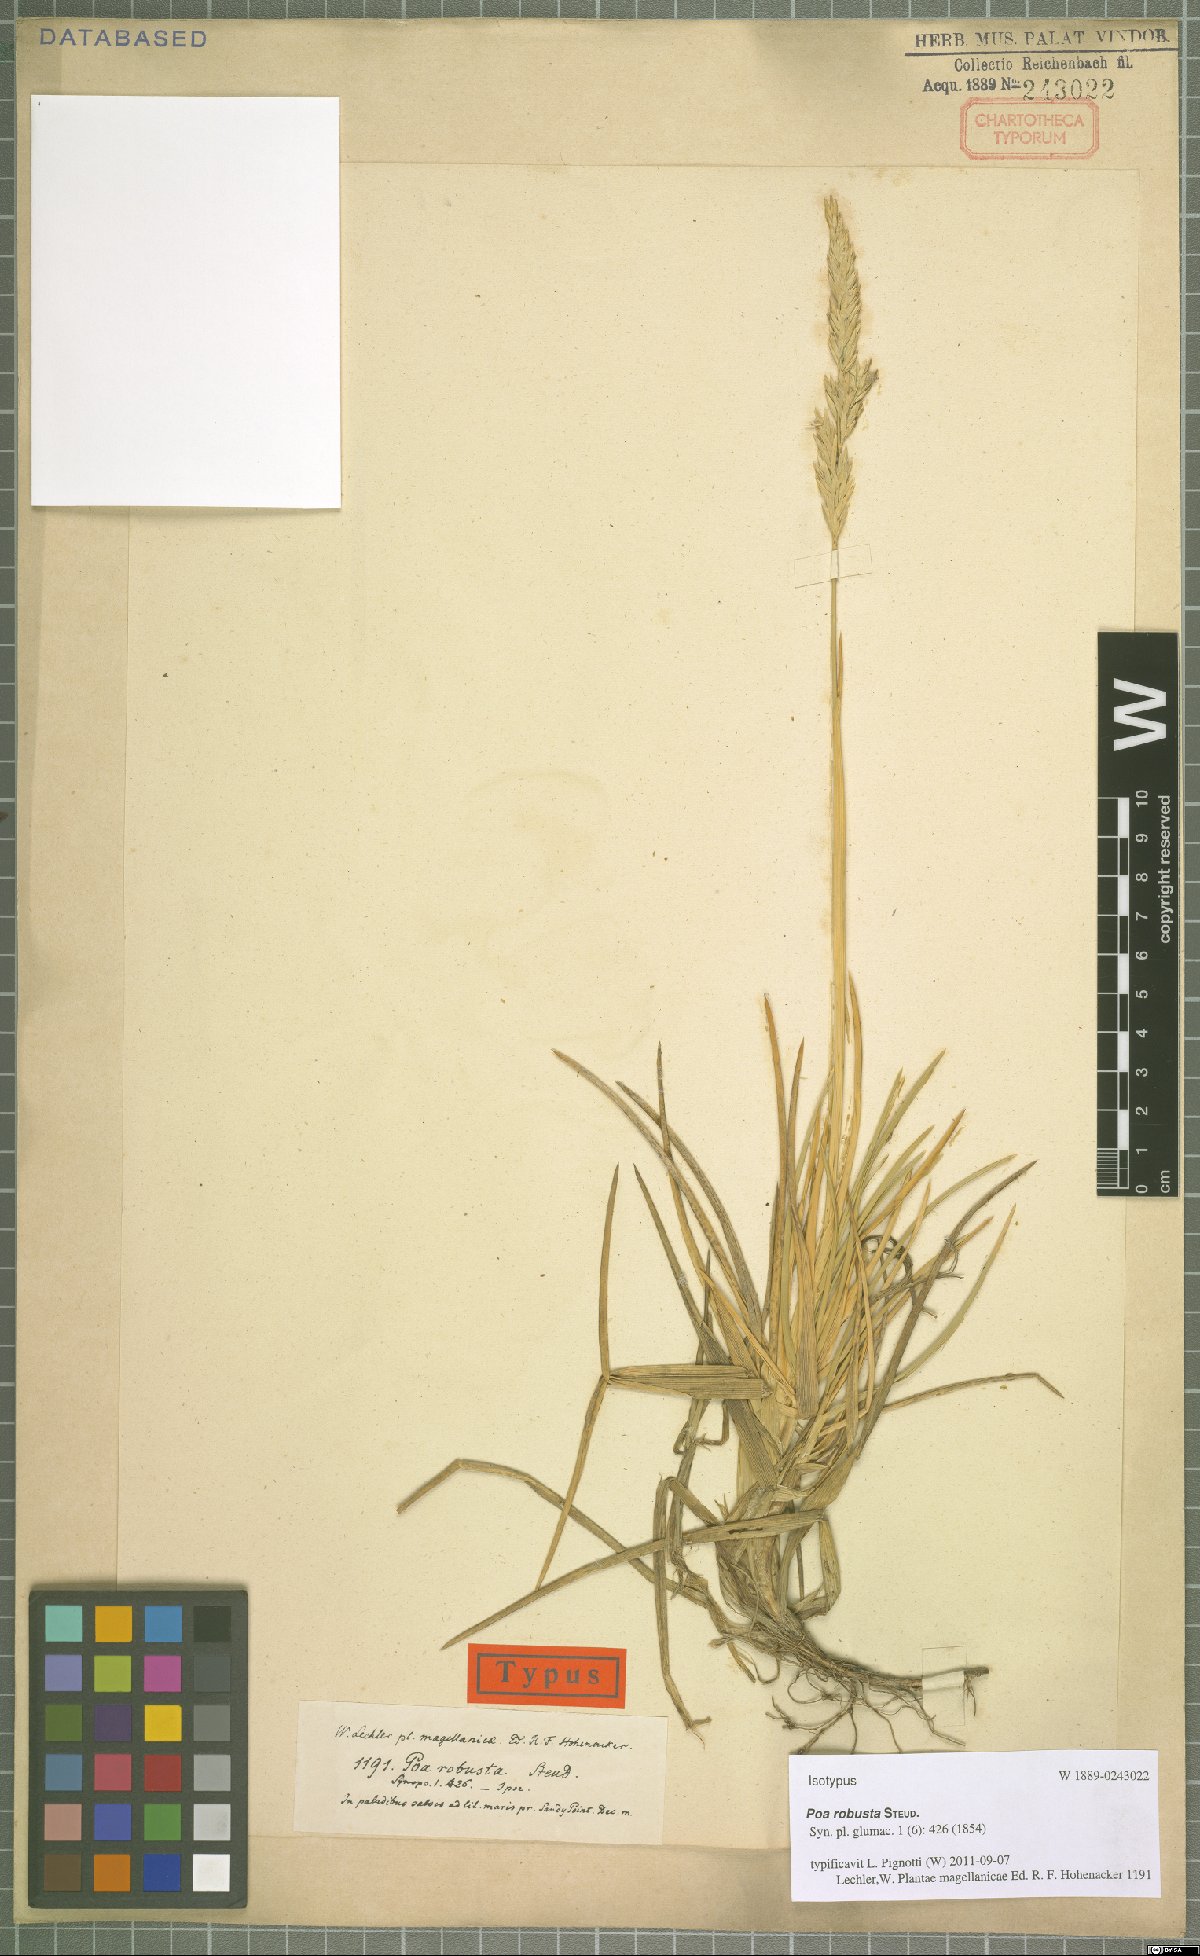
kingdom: Plantae
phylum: Tracheophyta
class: Liliopsida
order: Poales
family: Poaceae
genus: Nicoraepoa
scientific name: Nicoraepoa robusta
